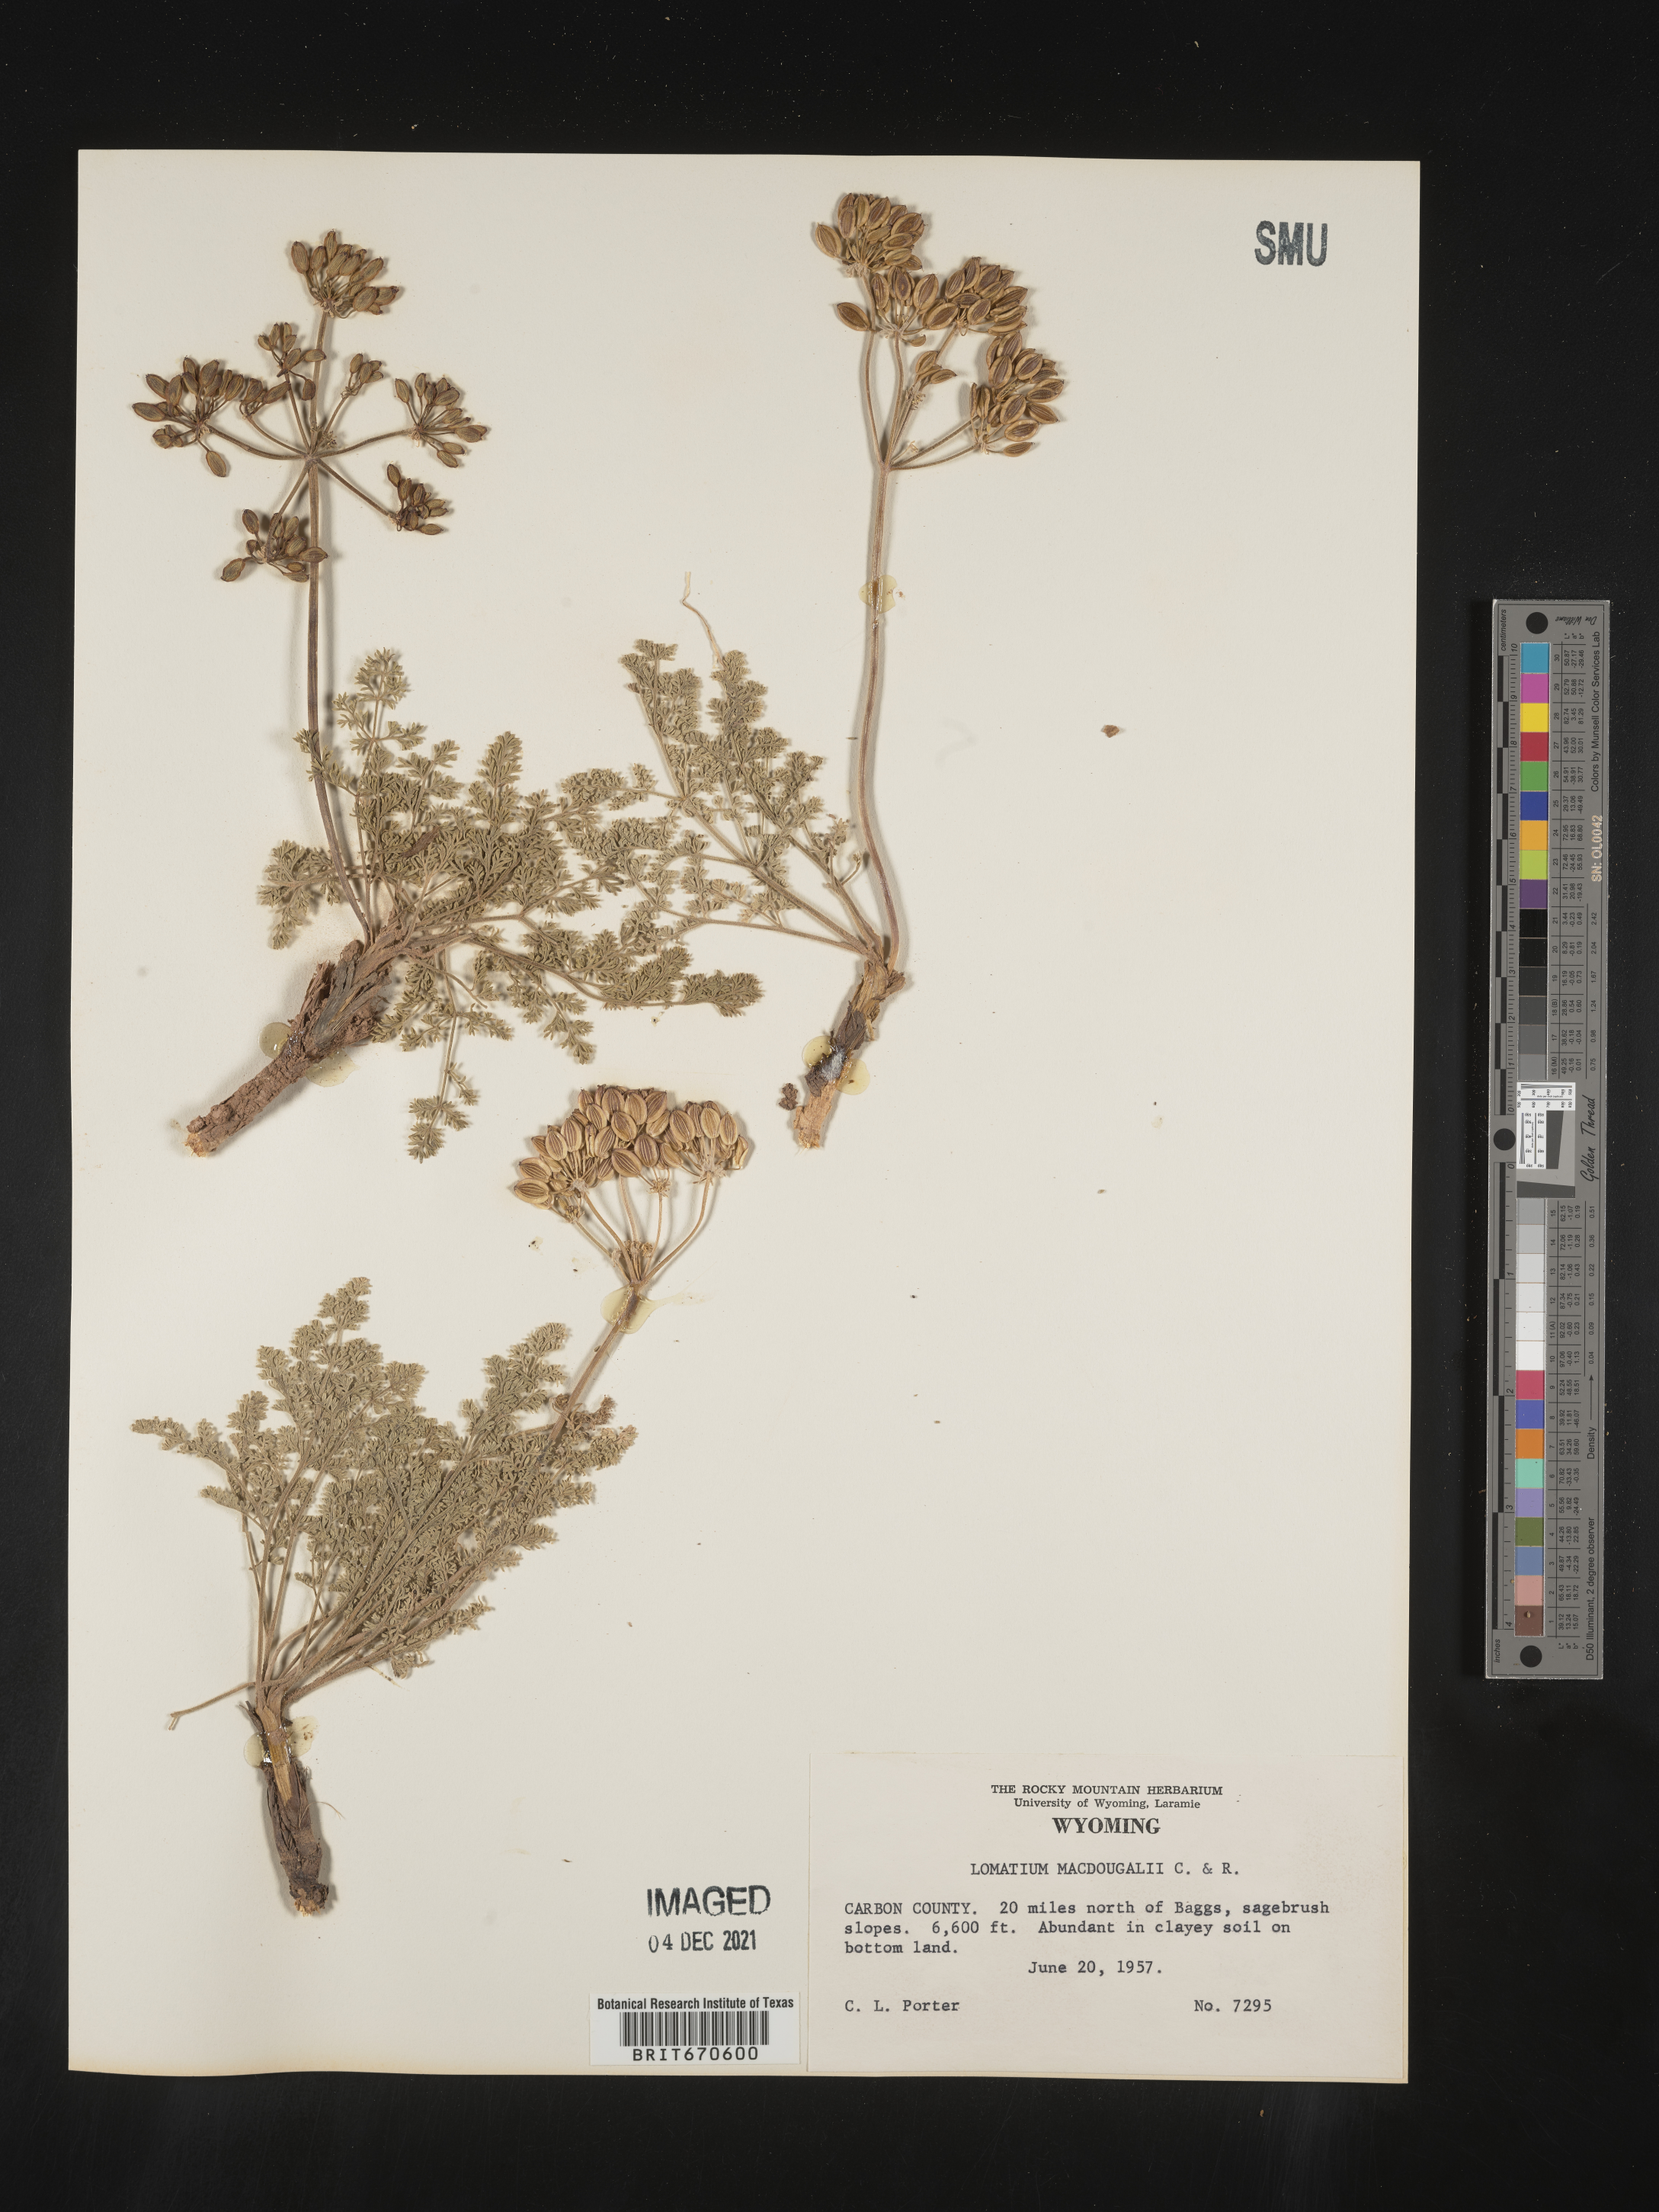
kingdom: Plantae
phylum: Tracheophyta
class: Magnoliopsida
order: Apiales
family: Apiaceae
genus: Lomatium
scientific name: Lomatium foeniculaceum
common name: Desert-parsley
